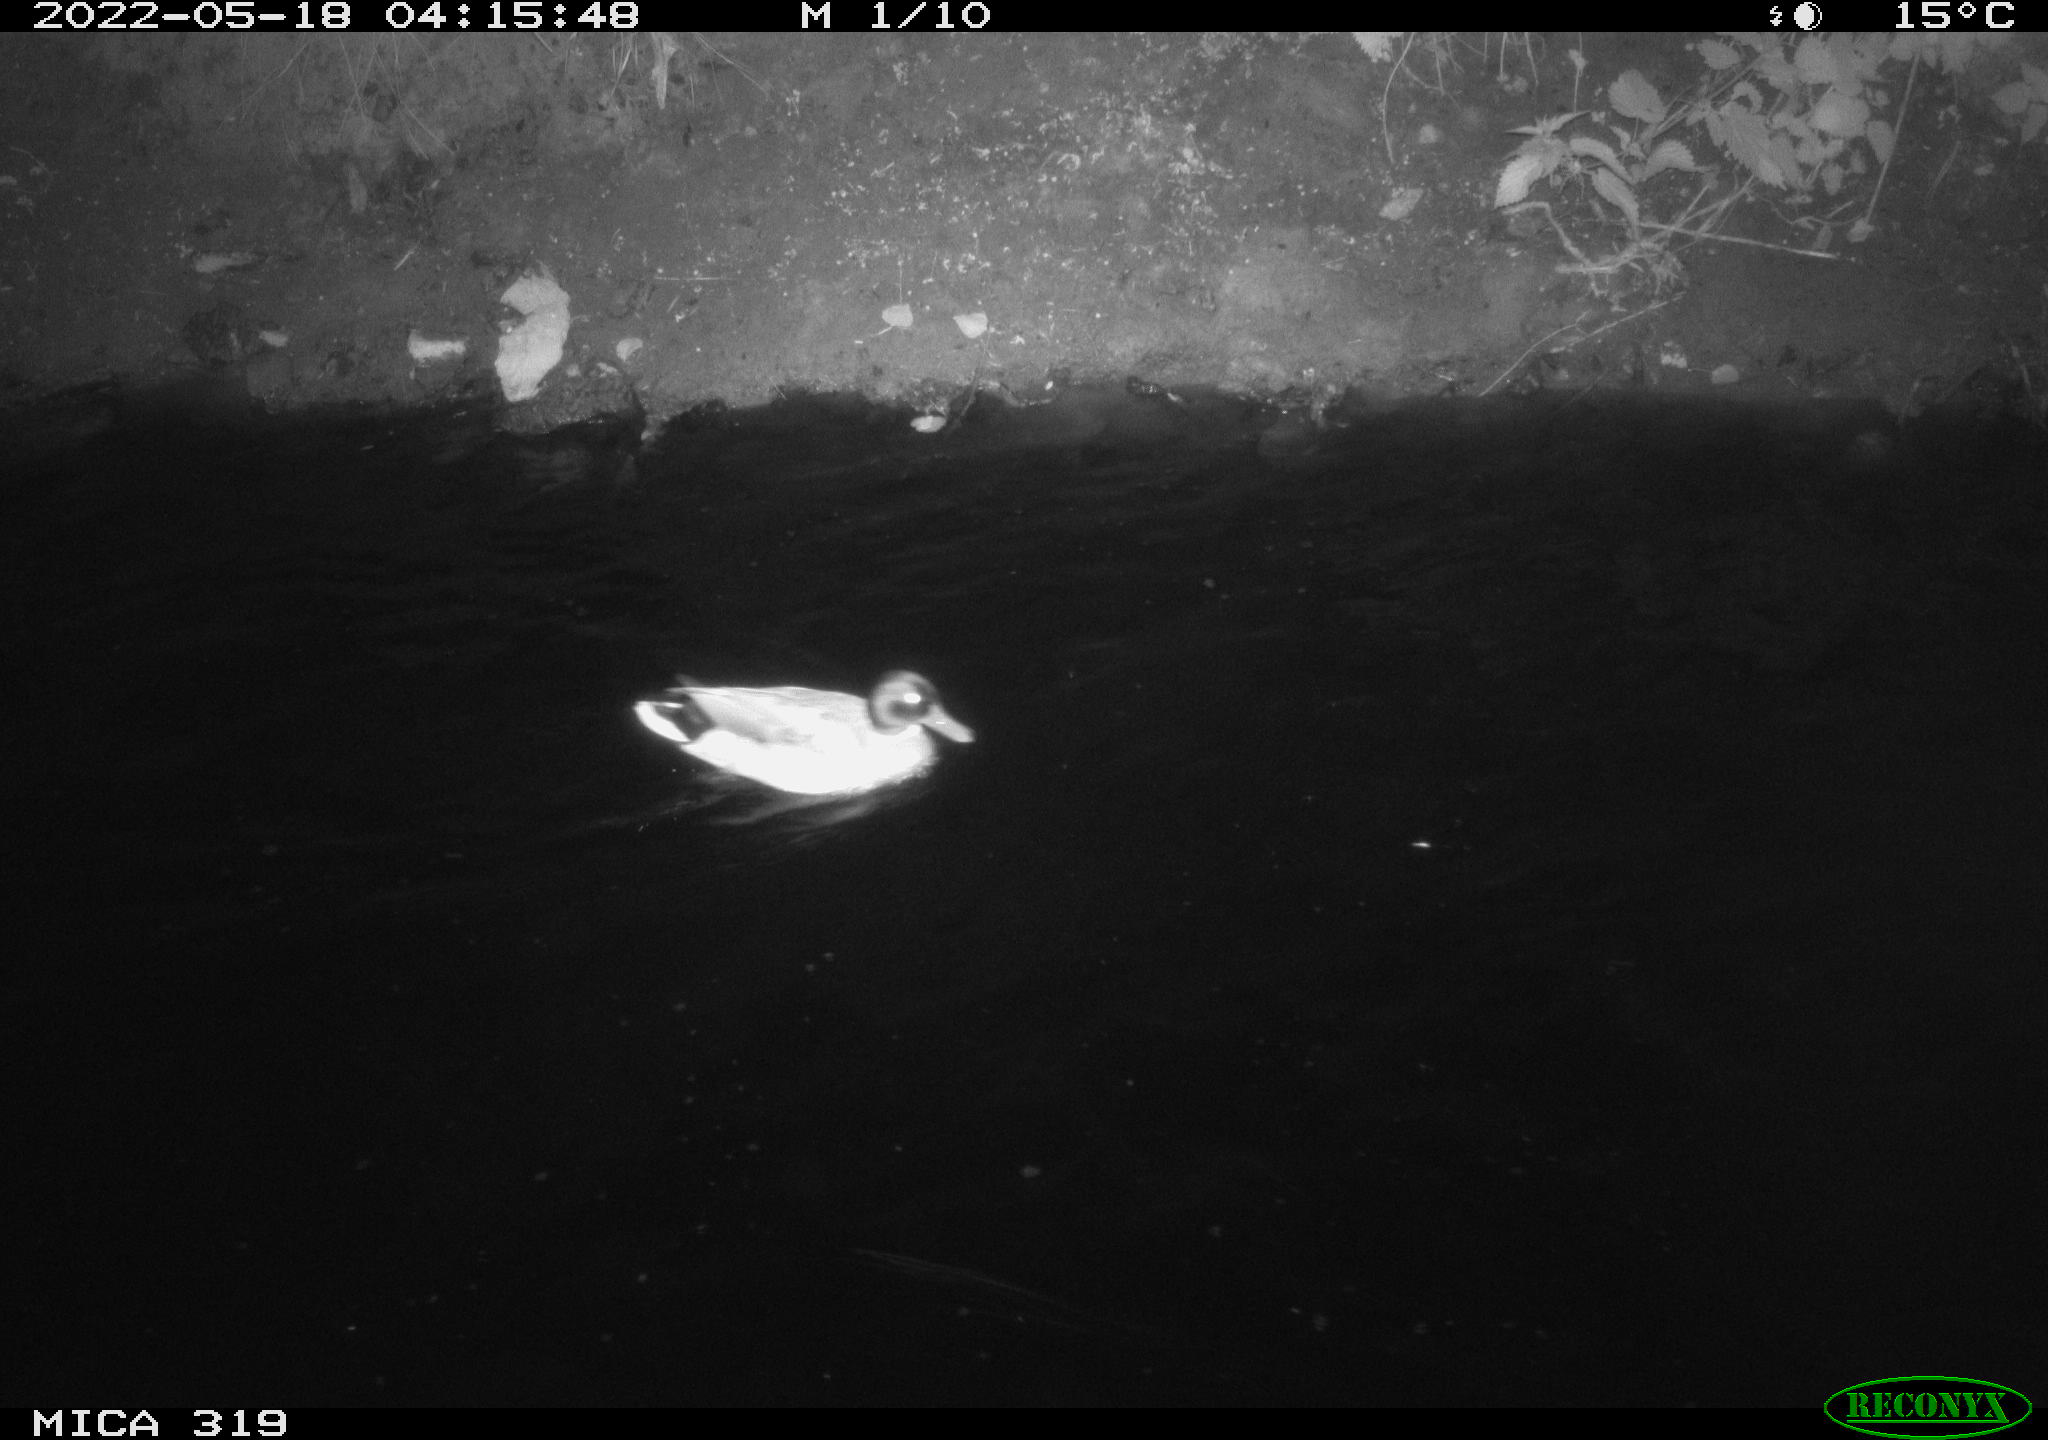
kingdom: Animalia
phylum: Chordata
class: Aves
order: Anseriformes
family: Anatidae
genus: Anas
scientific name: Anas
